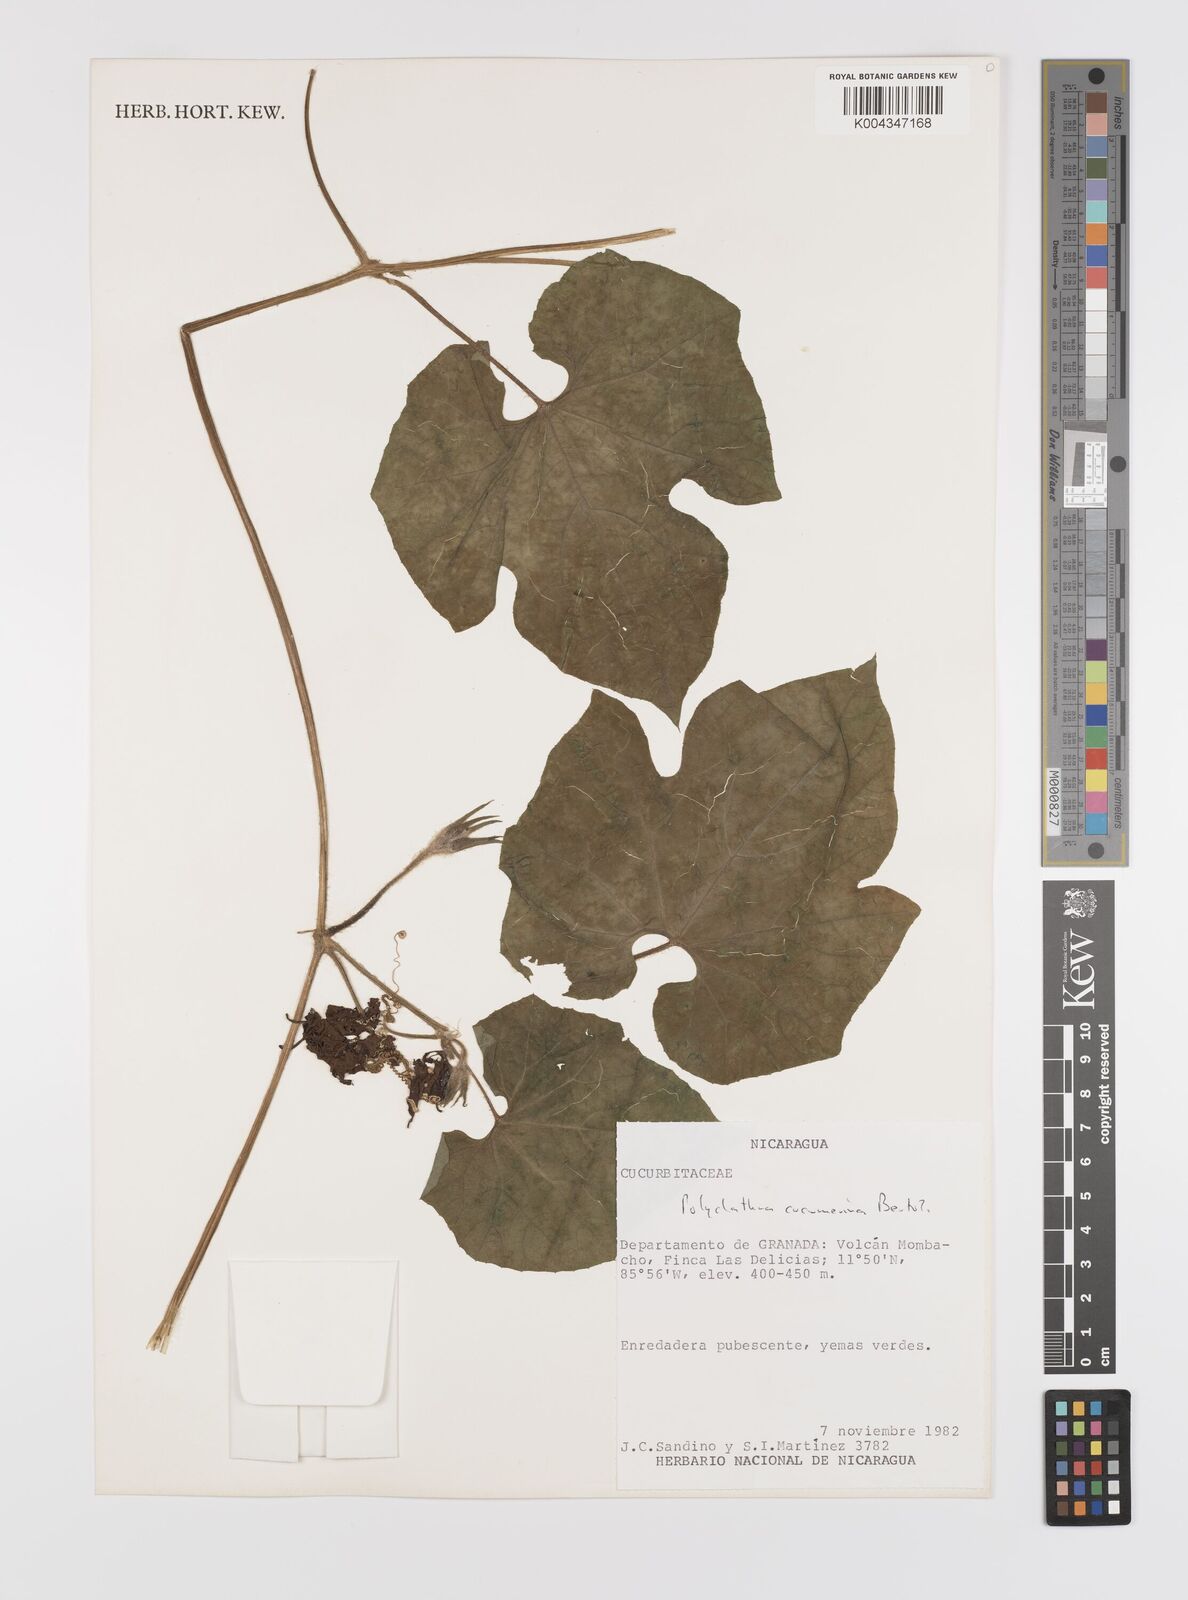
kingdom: Plantae
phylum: Tracheophyta
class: Magnoliopsida
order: Cucurbitales
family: Cucurbitaceae
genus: Polyclathra
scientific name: Polyclathra cucumerina
